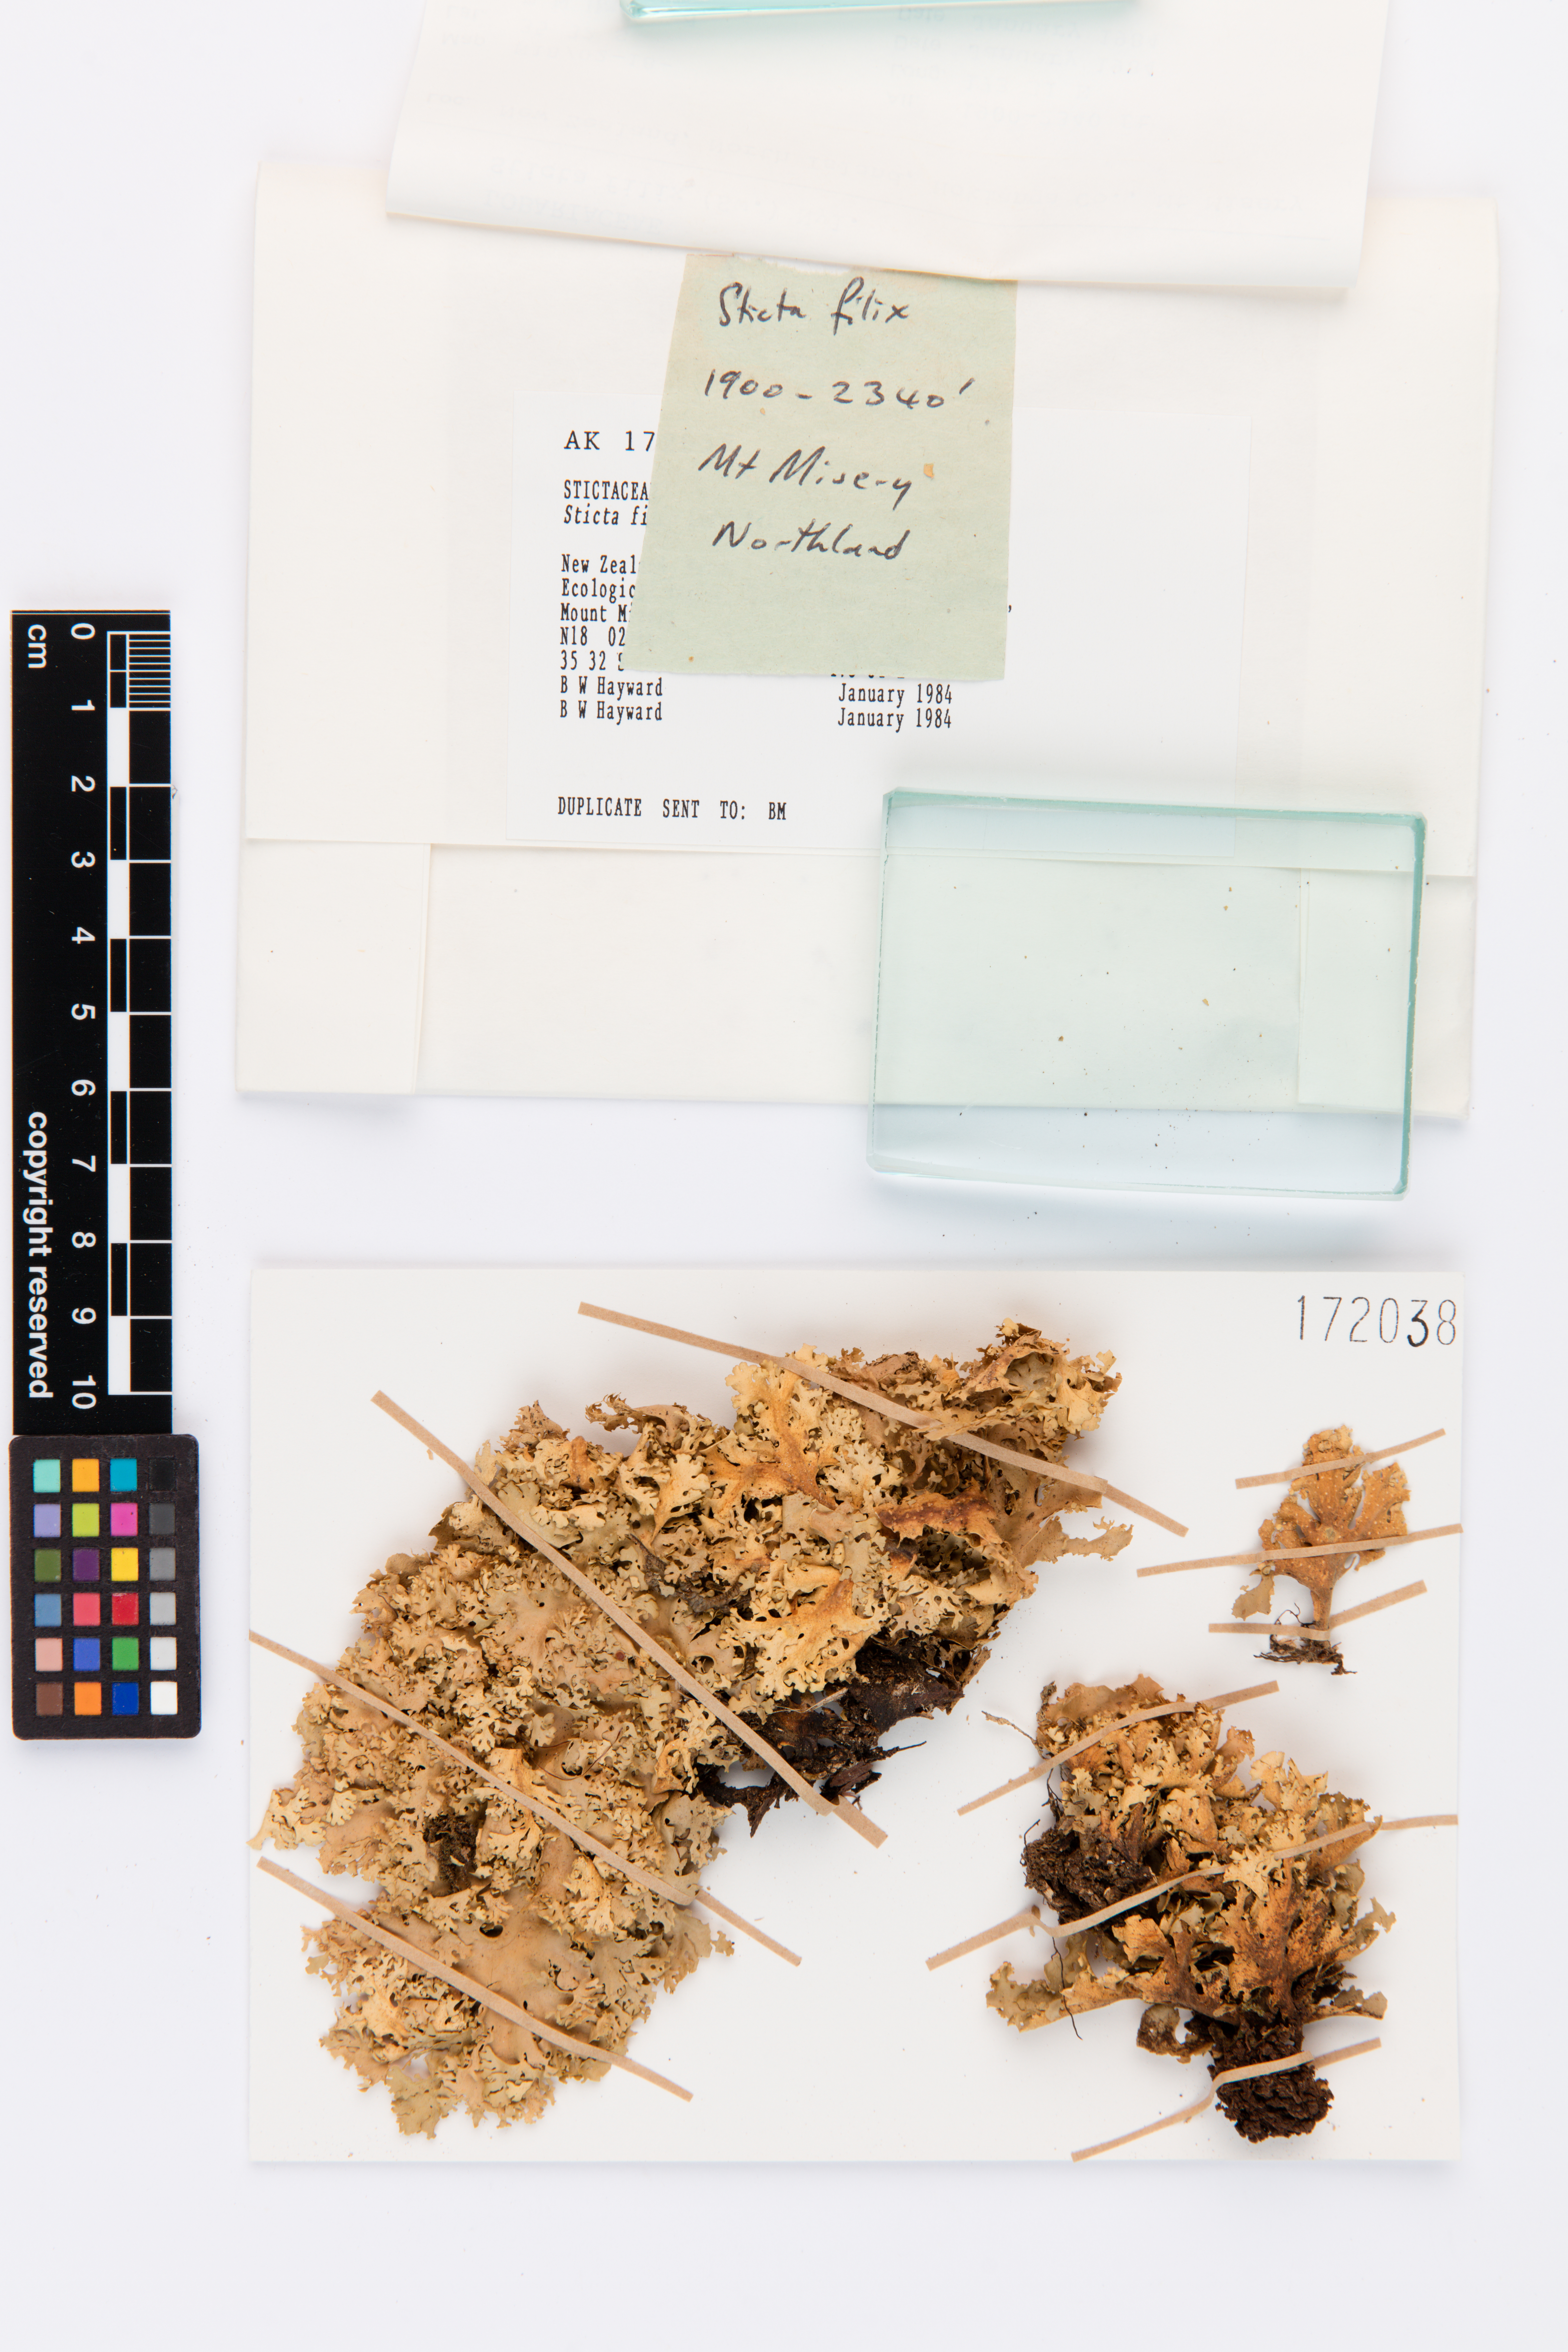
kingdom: Fungi
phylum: Ascomycota
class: Lecanoromycetes
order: Peltigerales
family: Lobariaceae
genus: Sticta
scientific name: Sticta filix
